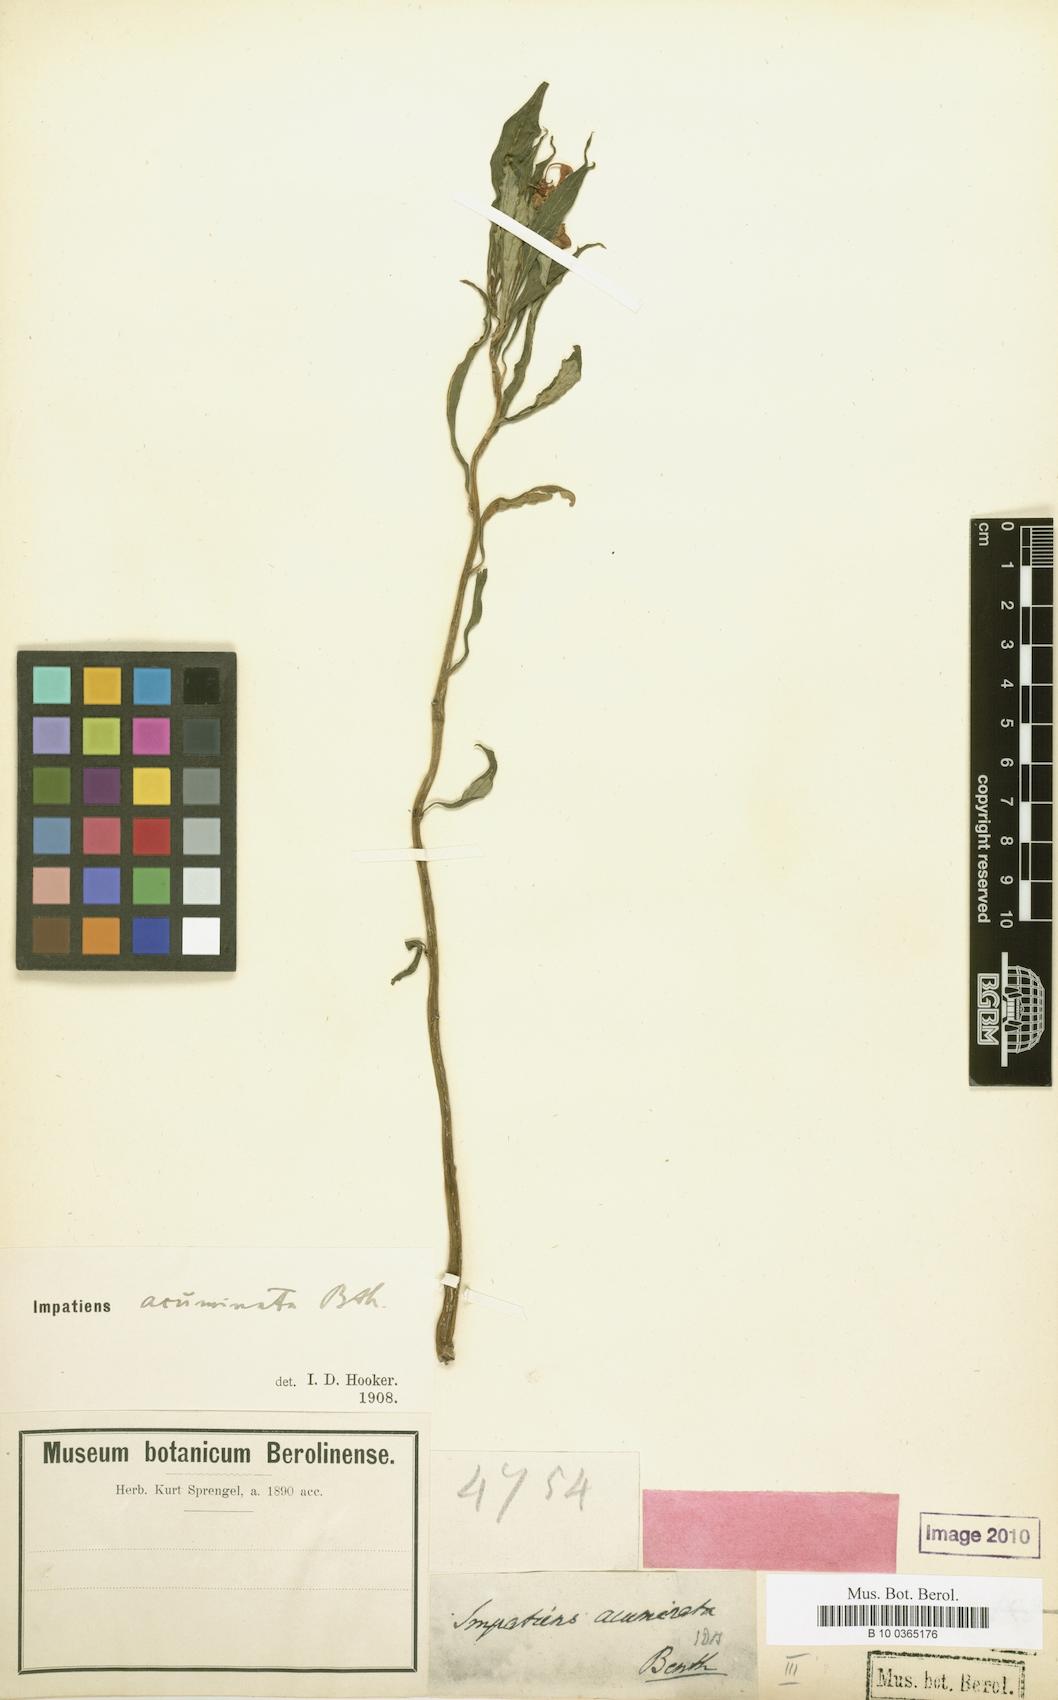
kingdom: Plantae
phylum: Tracheophyta
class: Magnoliopsida
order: Ericales
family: Balsaminaceae
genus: Impatiens
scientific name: Impatiens acuminata
